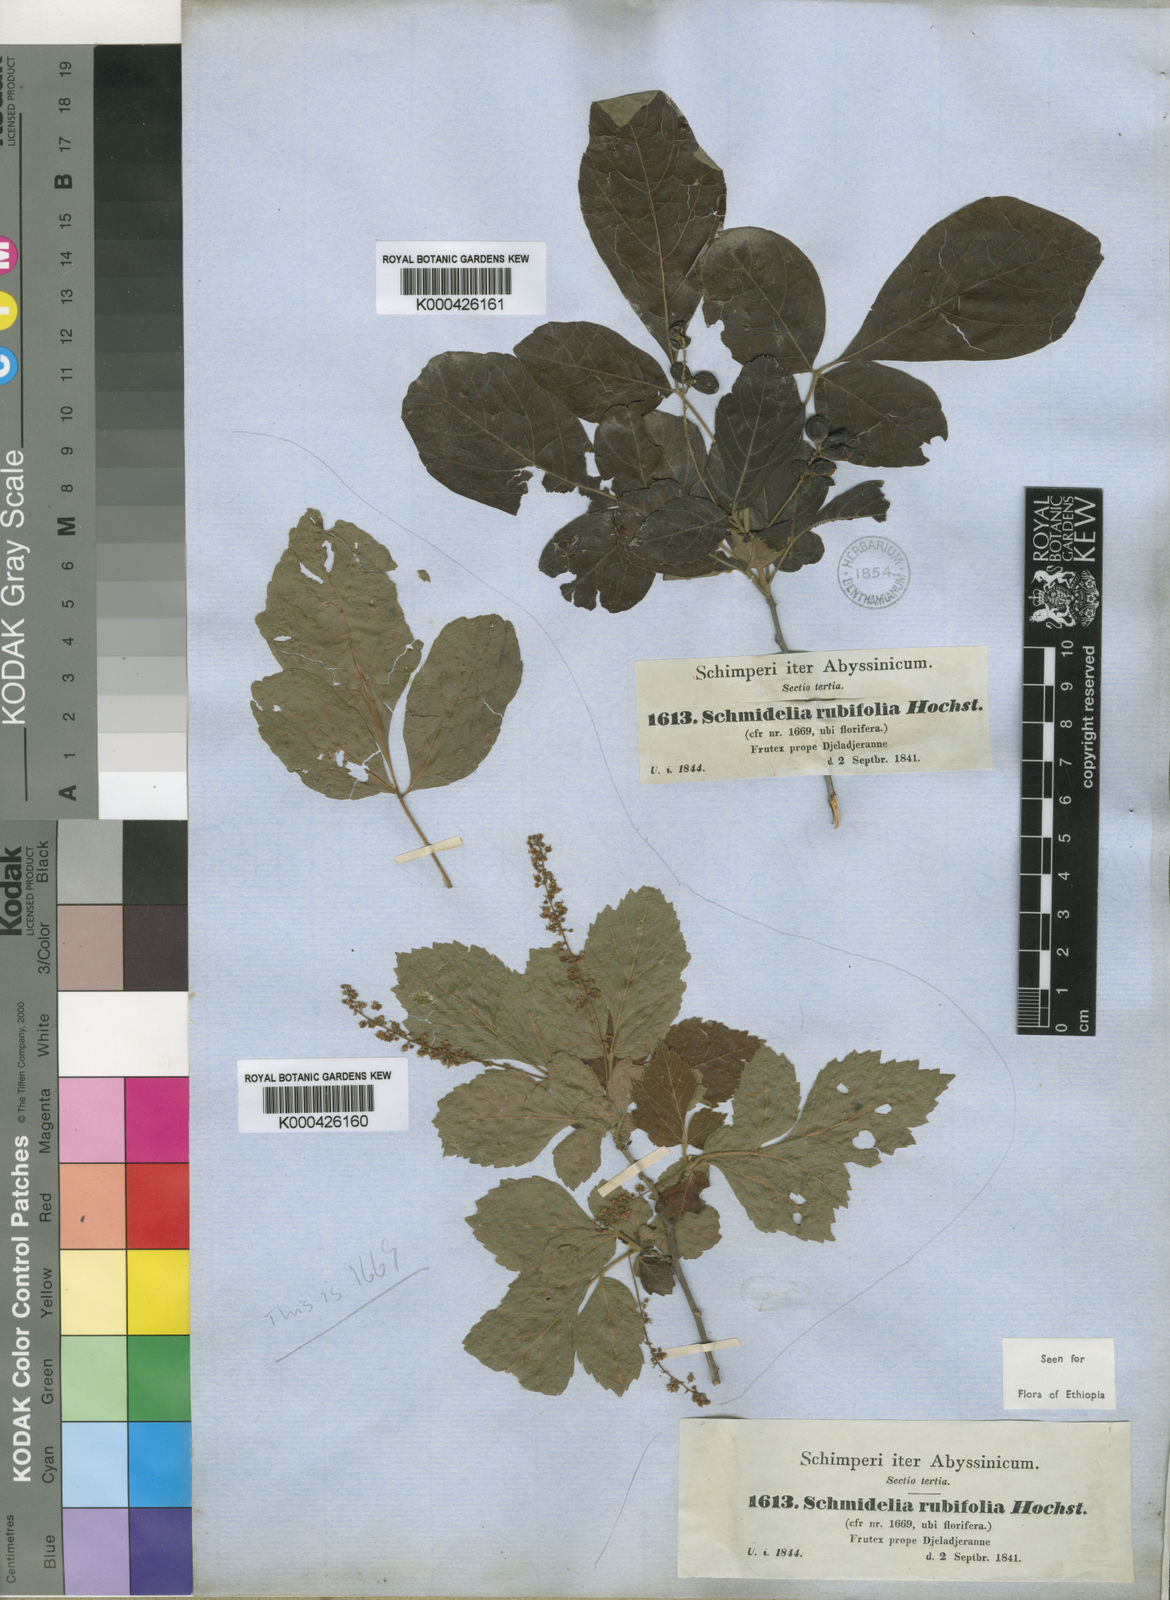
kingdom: Plantae
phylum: Tracheophyta
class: Magnoliopsida
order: Sapindales
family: Sapindaceae
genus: Allophylus
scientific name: Allophylus rubifolius
